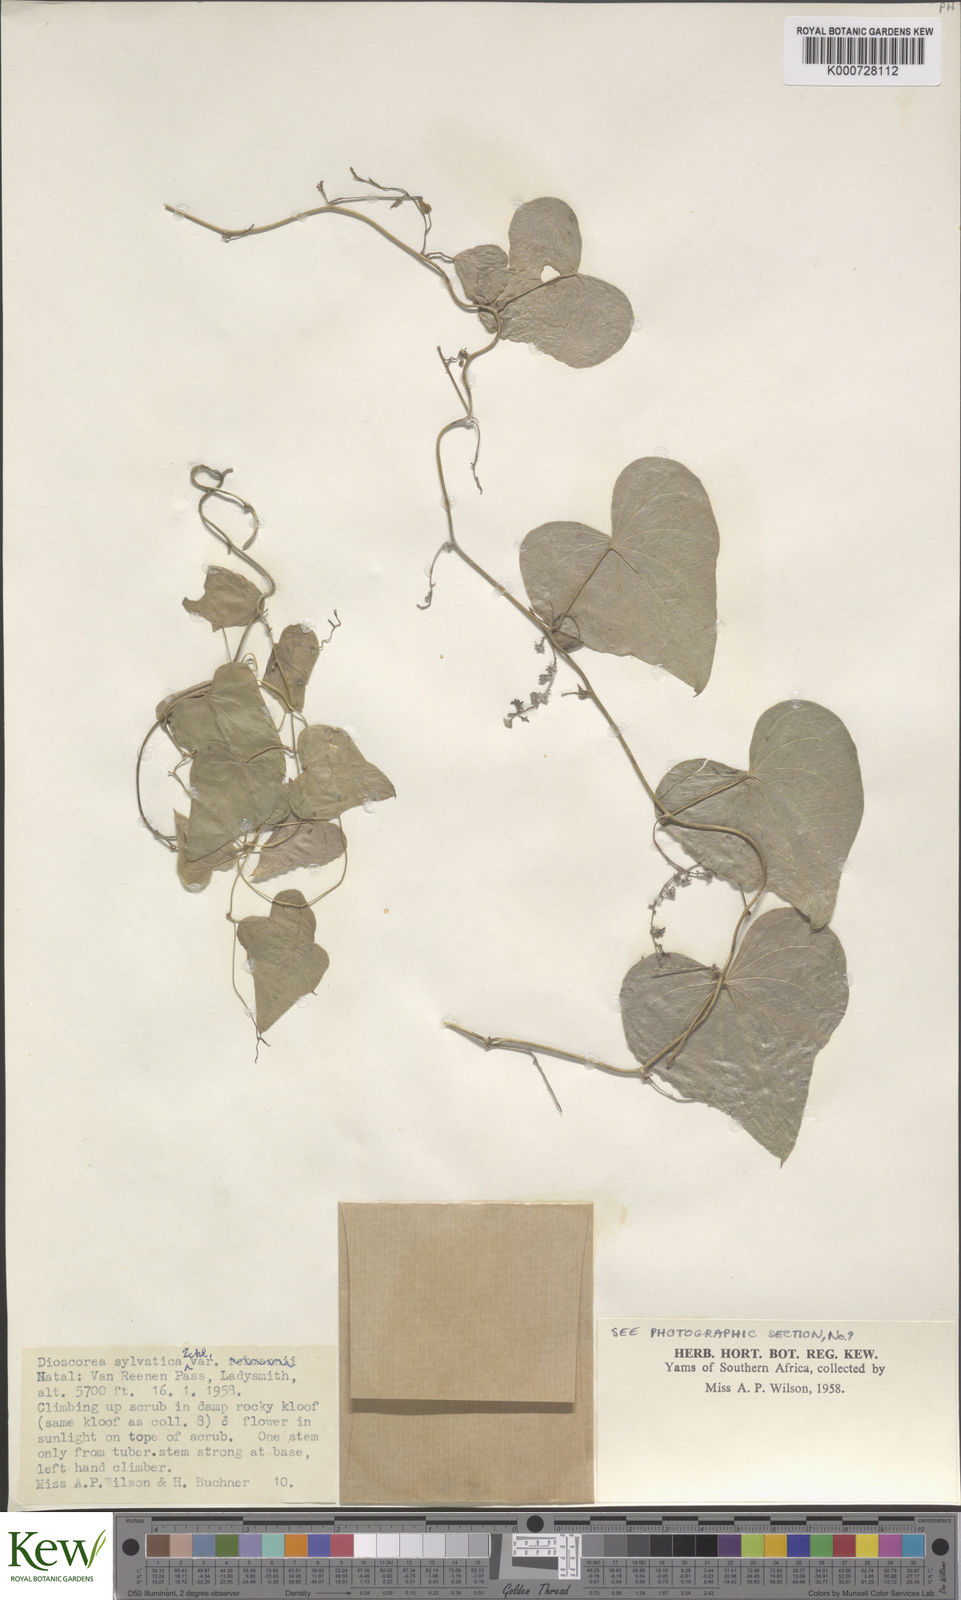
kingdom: Plantae
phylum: Tracheophyta
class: Liliopsida
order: Dioscoreales
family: Dioscoreaceae
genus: Dioscorea
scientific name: Dioscorea sylvatica
